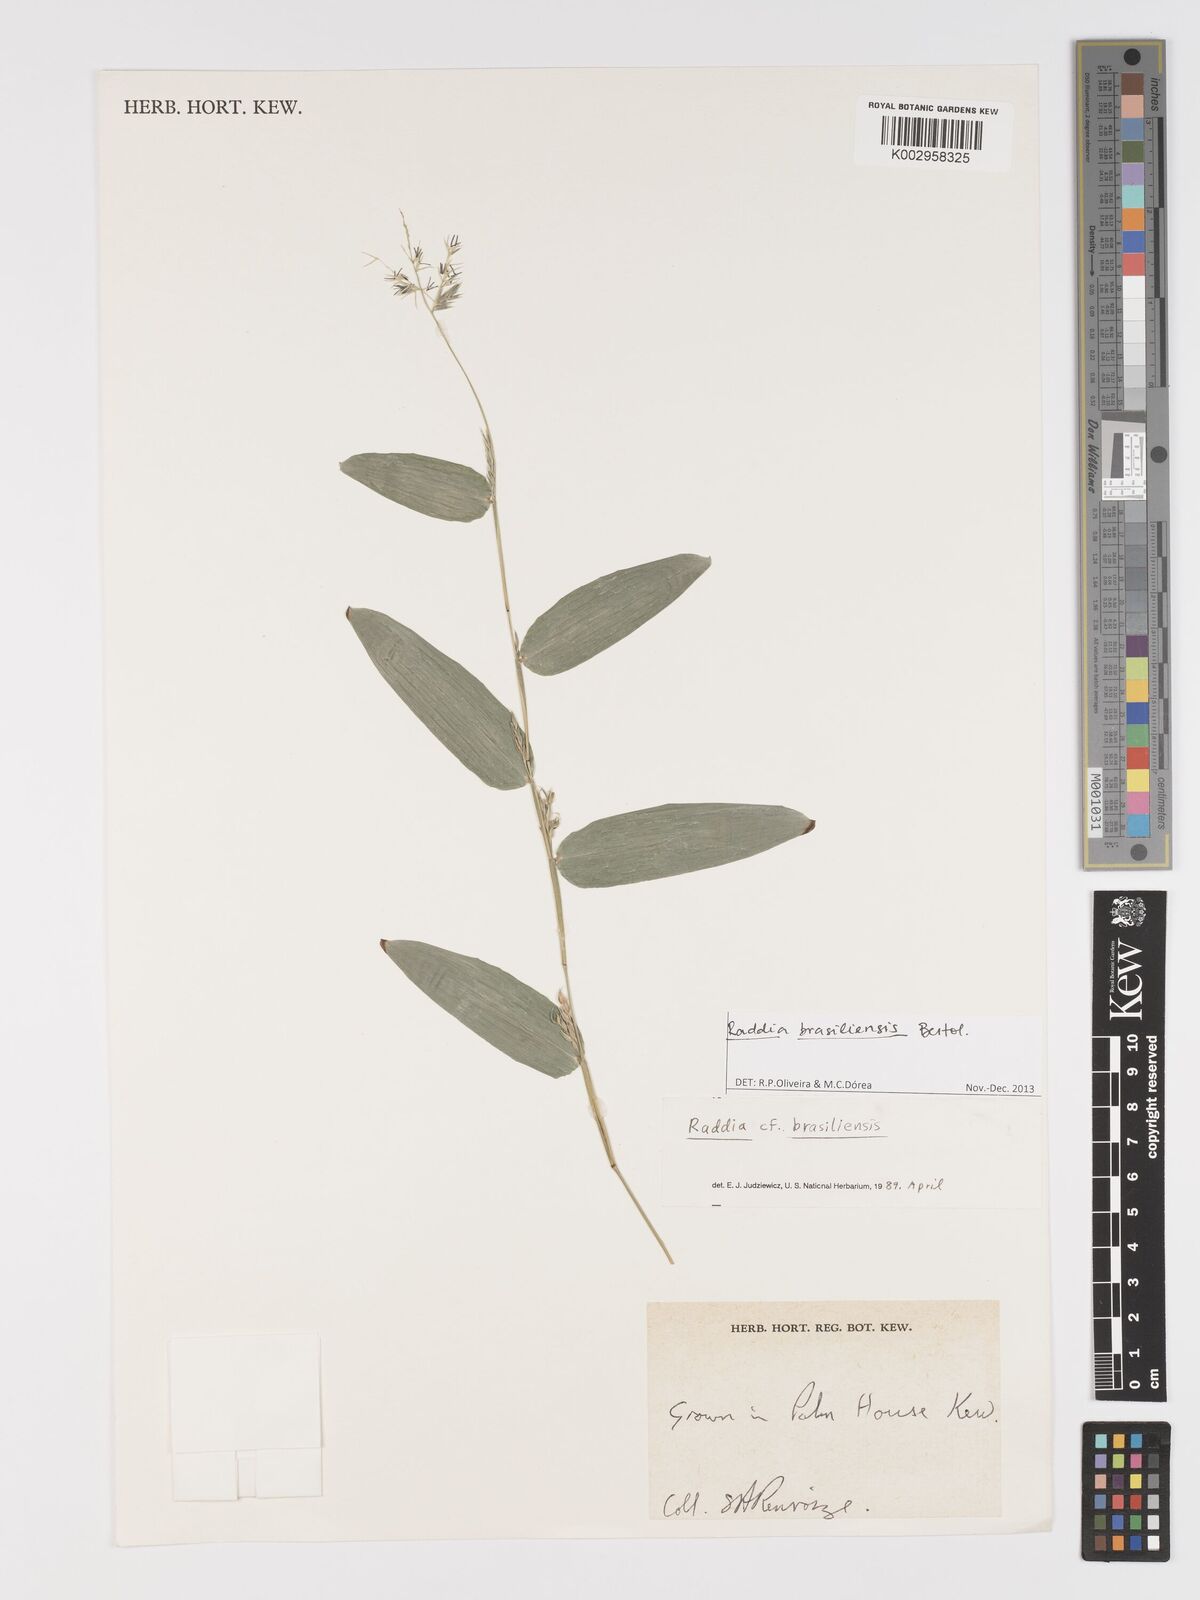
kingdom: Plantae
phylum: Tracheophyta
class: Liliopsida
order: Poales
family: Poaceae
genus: Raddia
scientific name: Raddia brasiliensis
